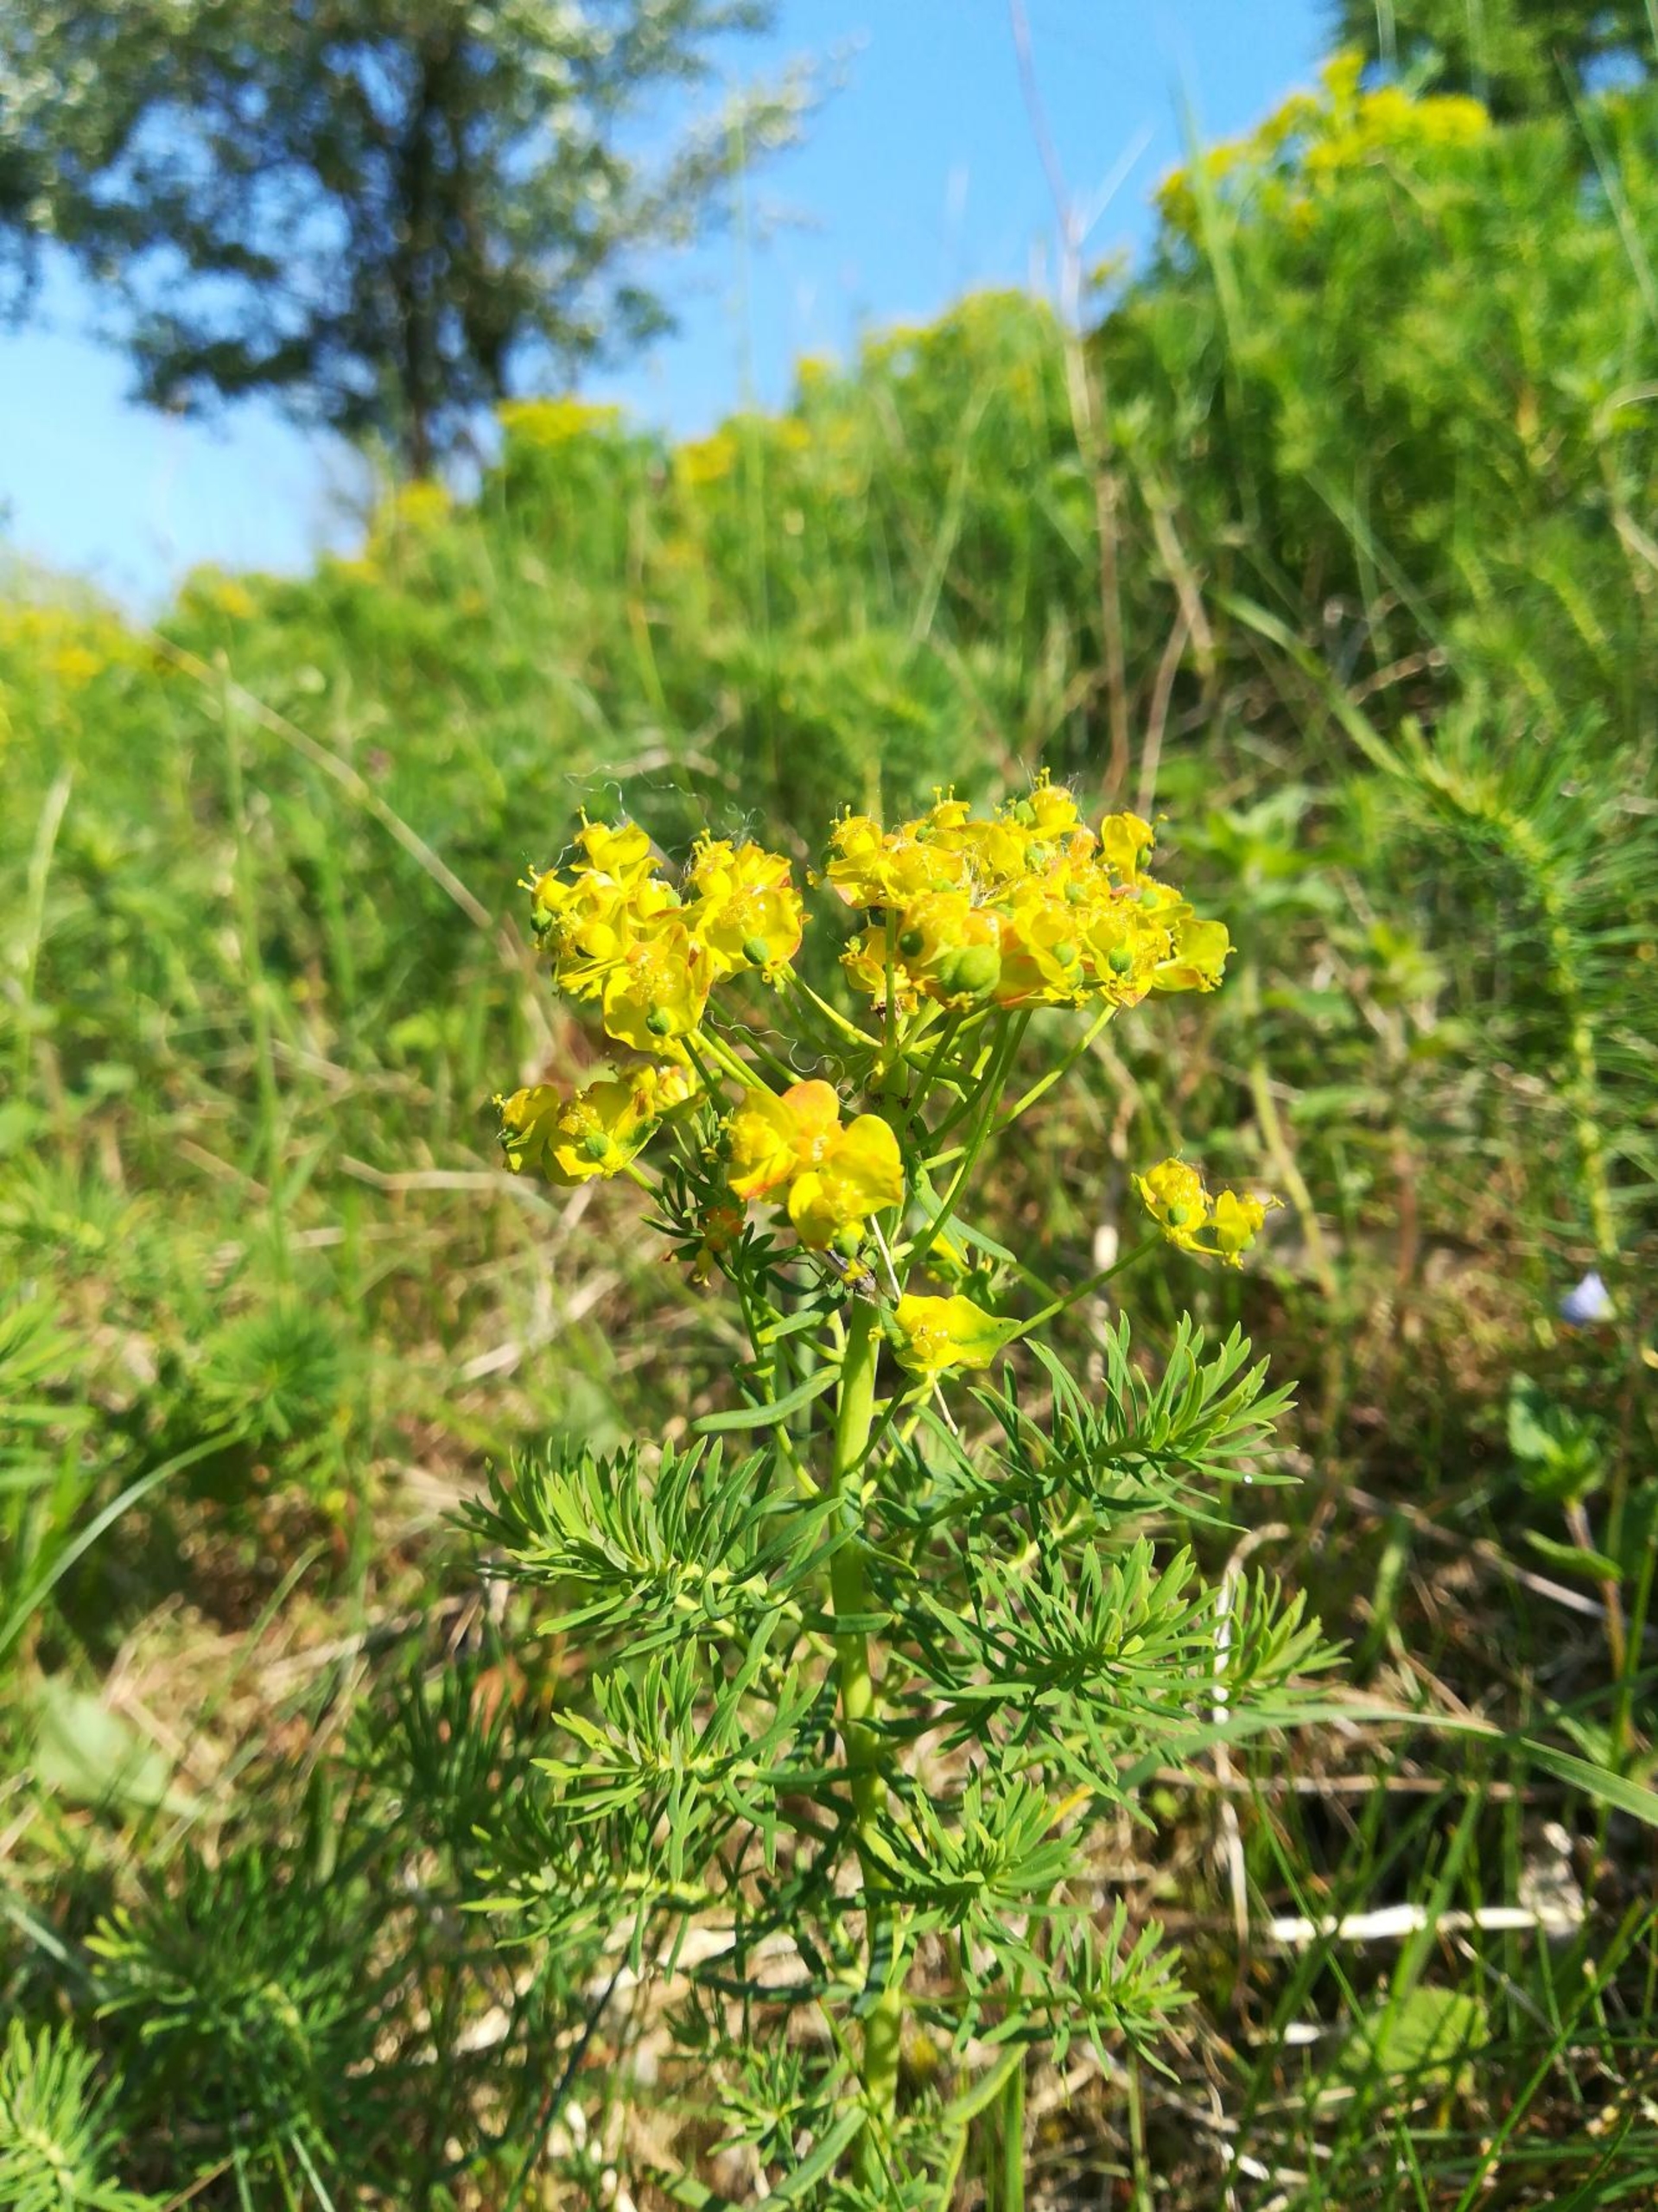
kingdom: Plantae
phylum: Tracheophyta
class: Magnoliopsida
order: Malpighiales
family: Euphorbiaceae
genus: Euphorbia
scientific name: Euphorbia cyparissias
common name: Cypres-vortemælk
